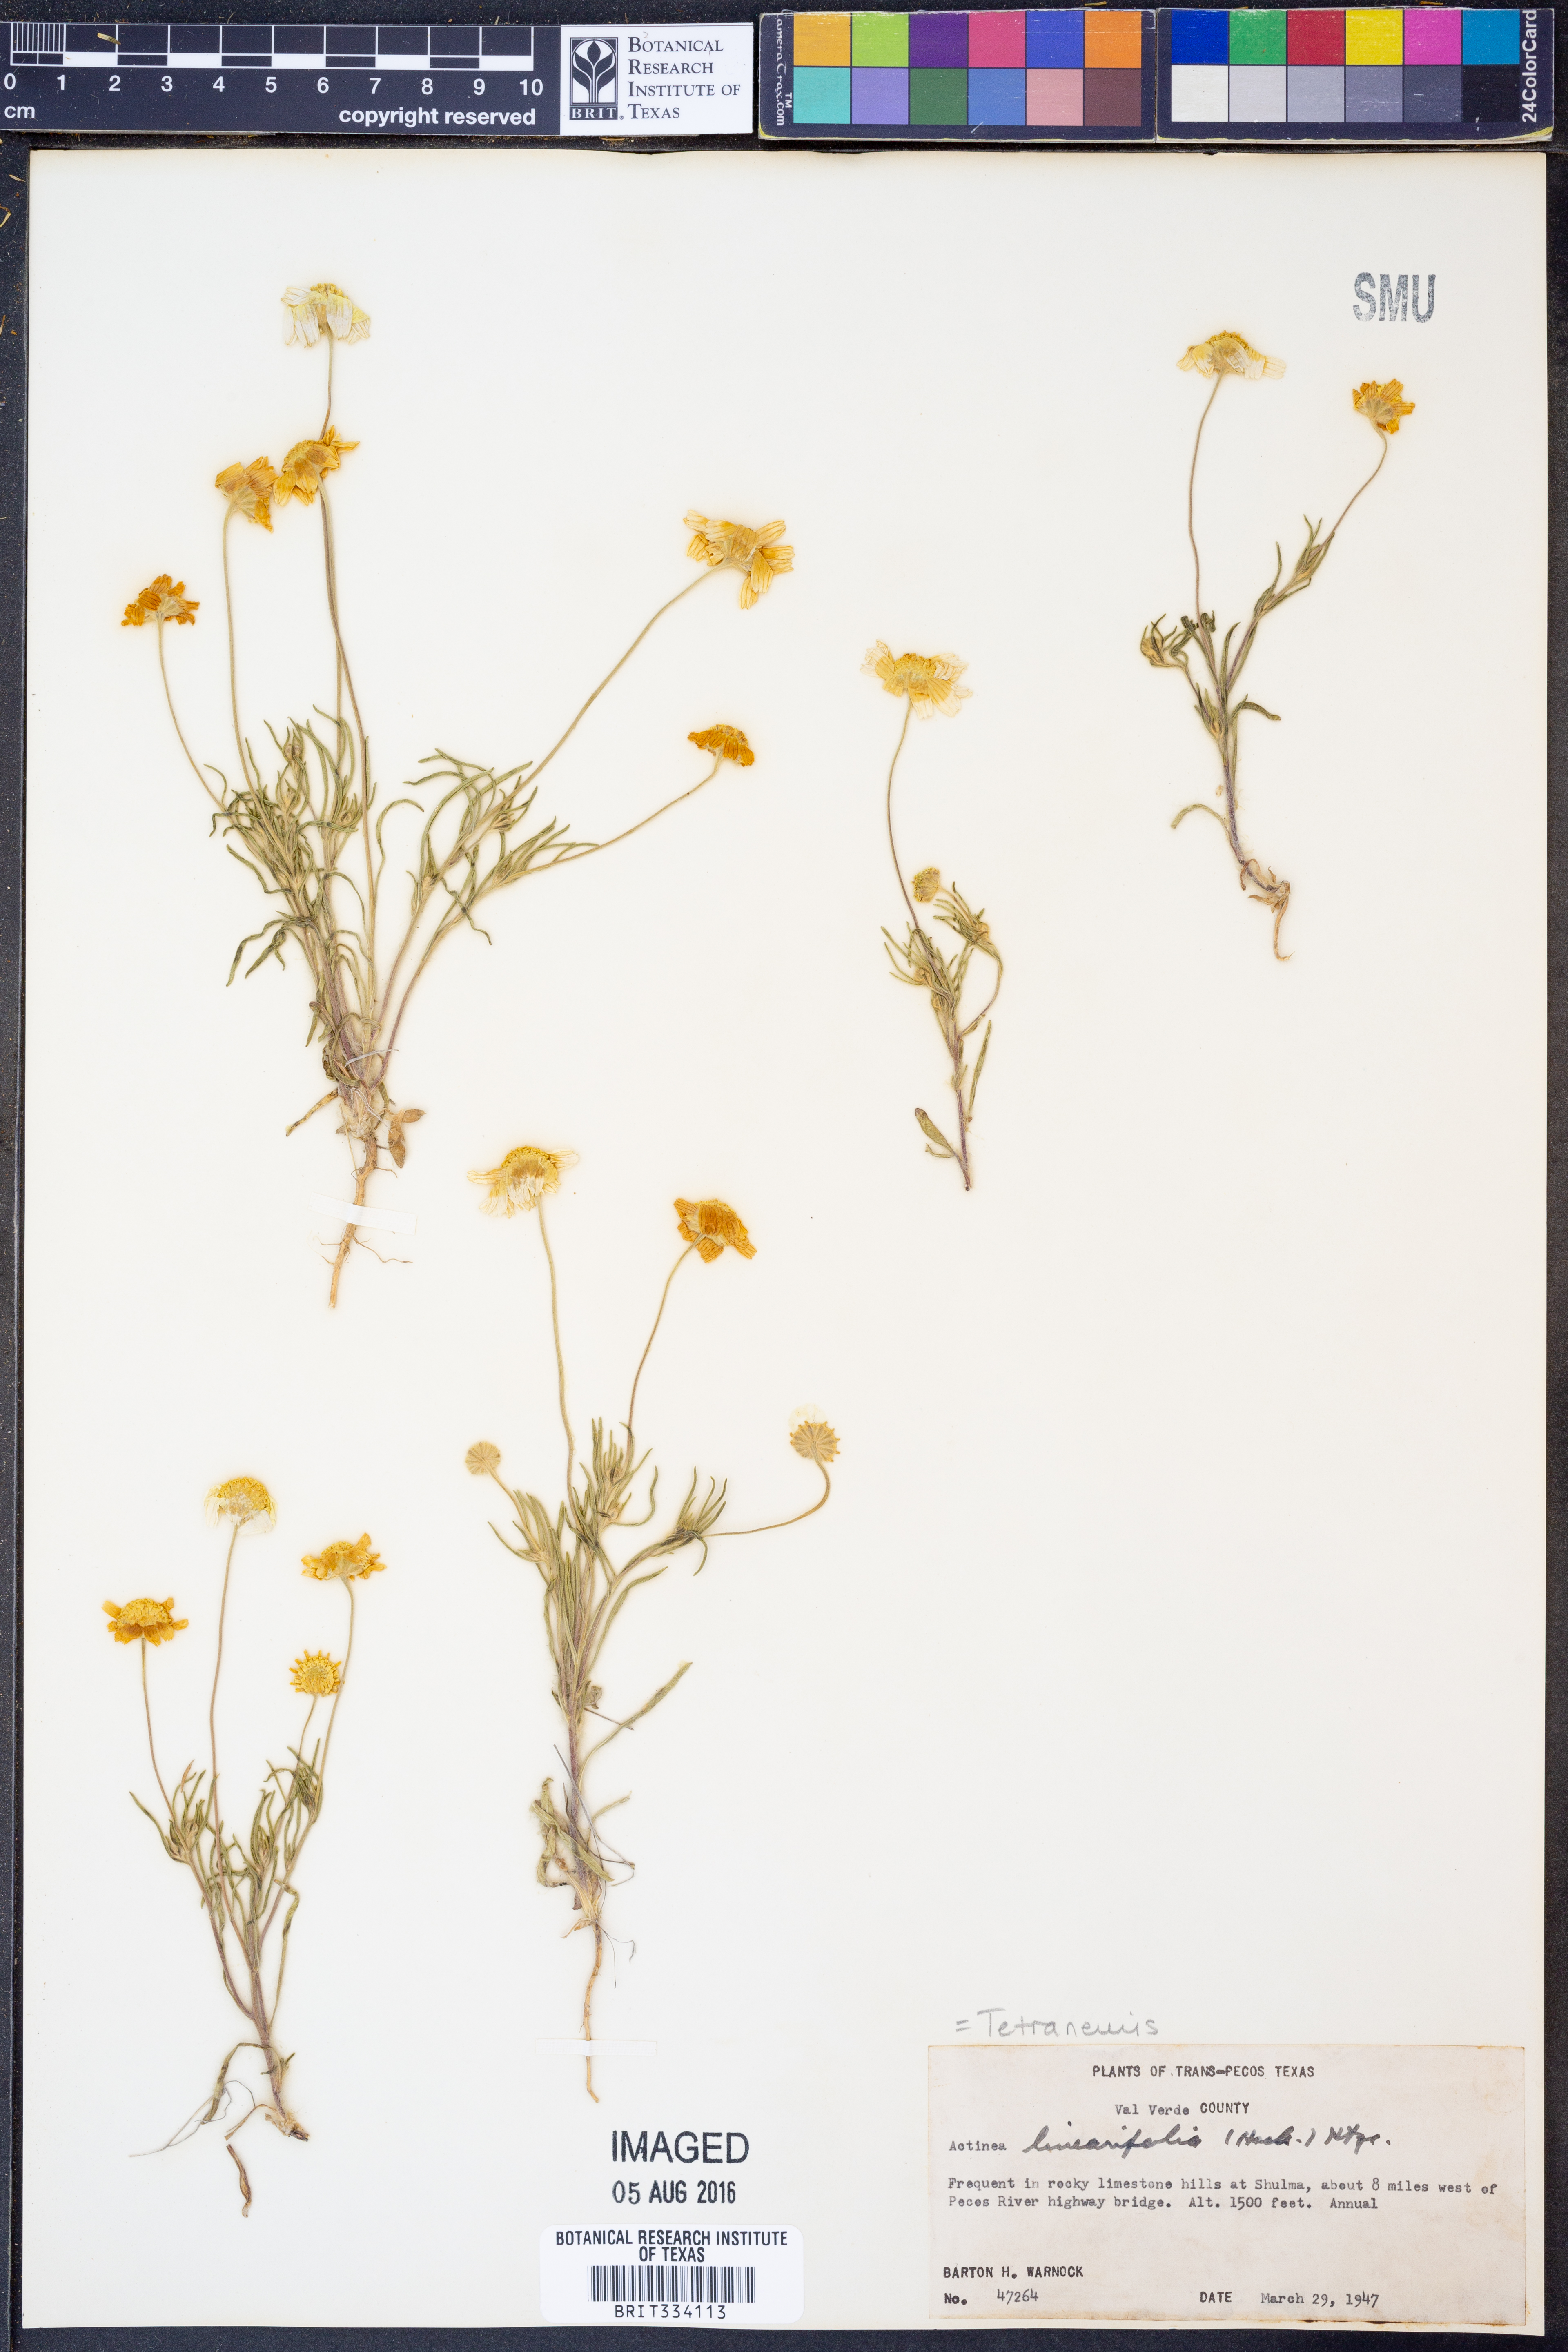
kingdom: Plantae
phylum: Tracheophyta
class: Magnoliopsida
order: Asterales
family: Asteraceae
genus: Tetraneuris
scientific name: Tetraneuris linearifolia
